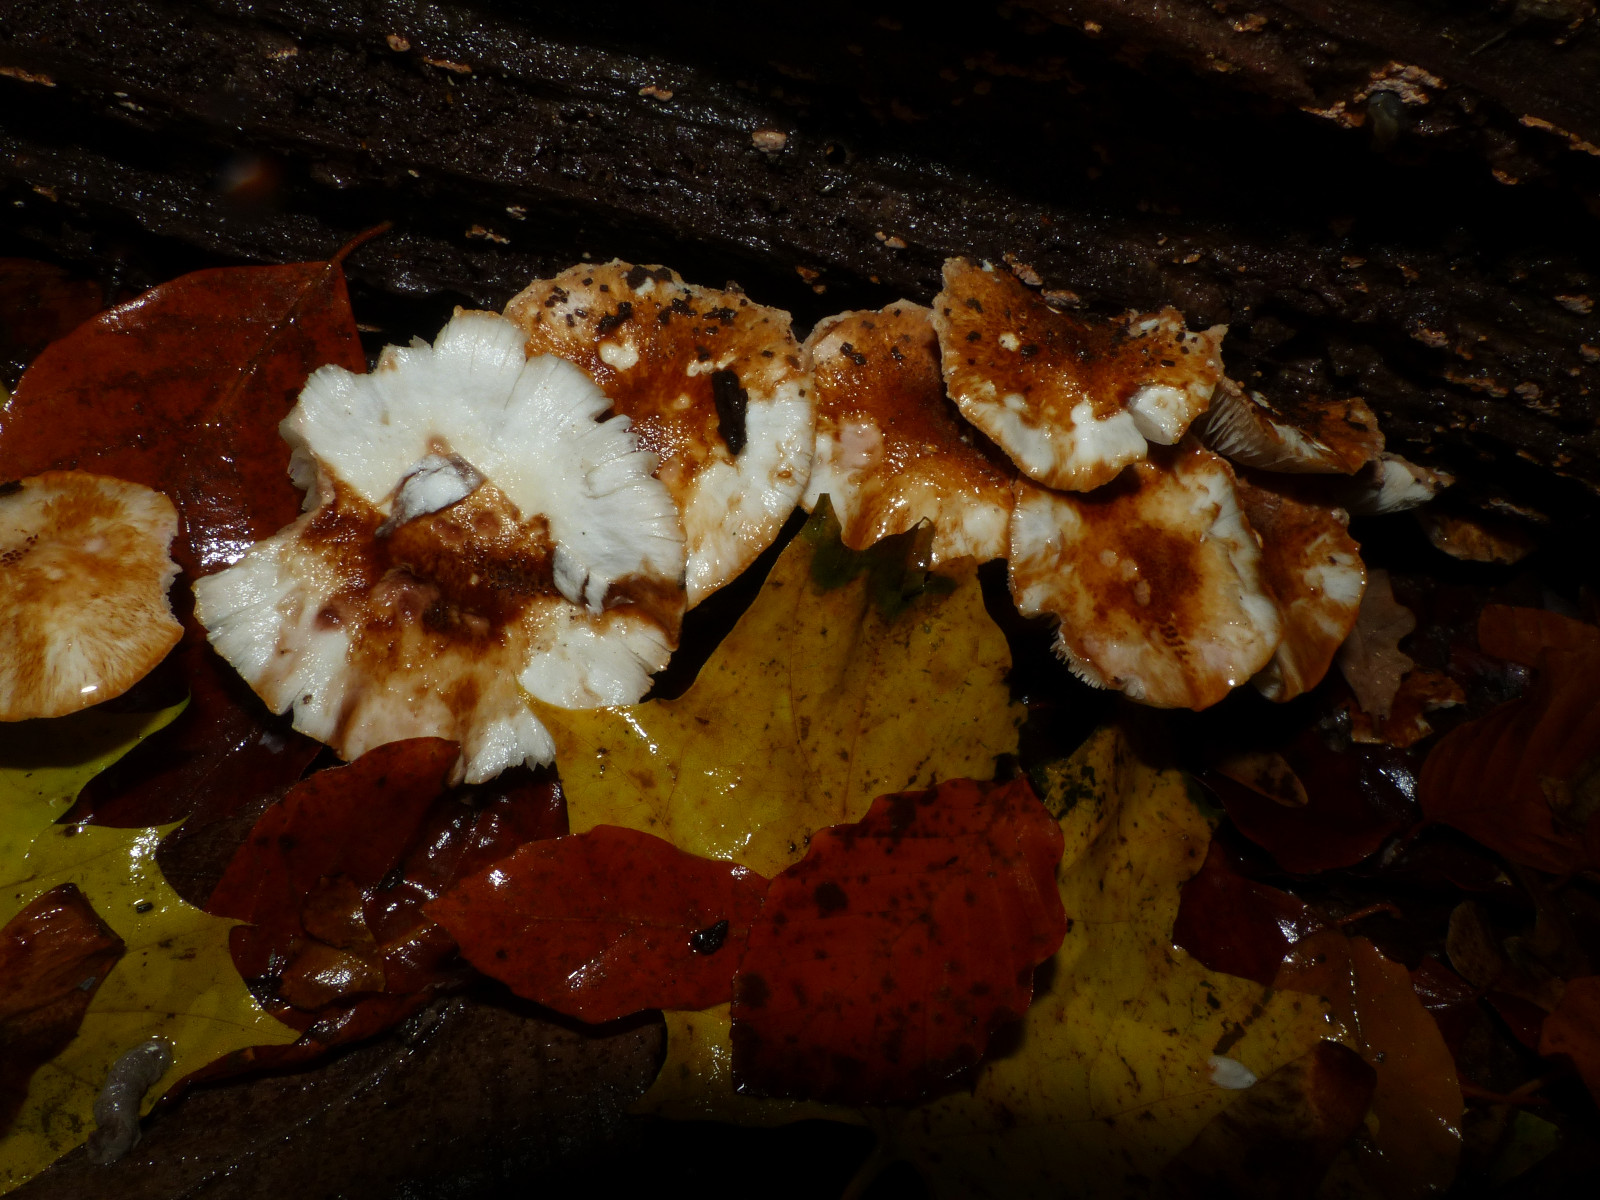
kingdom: Fungi
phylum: Basidiomycota
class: Agaricomycetes
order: Agaricales
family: Agaricaceae
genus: Leucocoprinus
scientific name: Leucocoprinus straminellus
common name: rustbrun parasolhat
